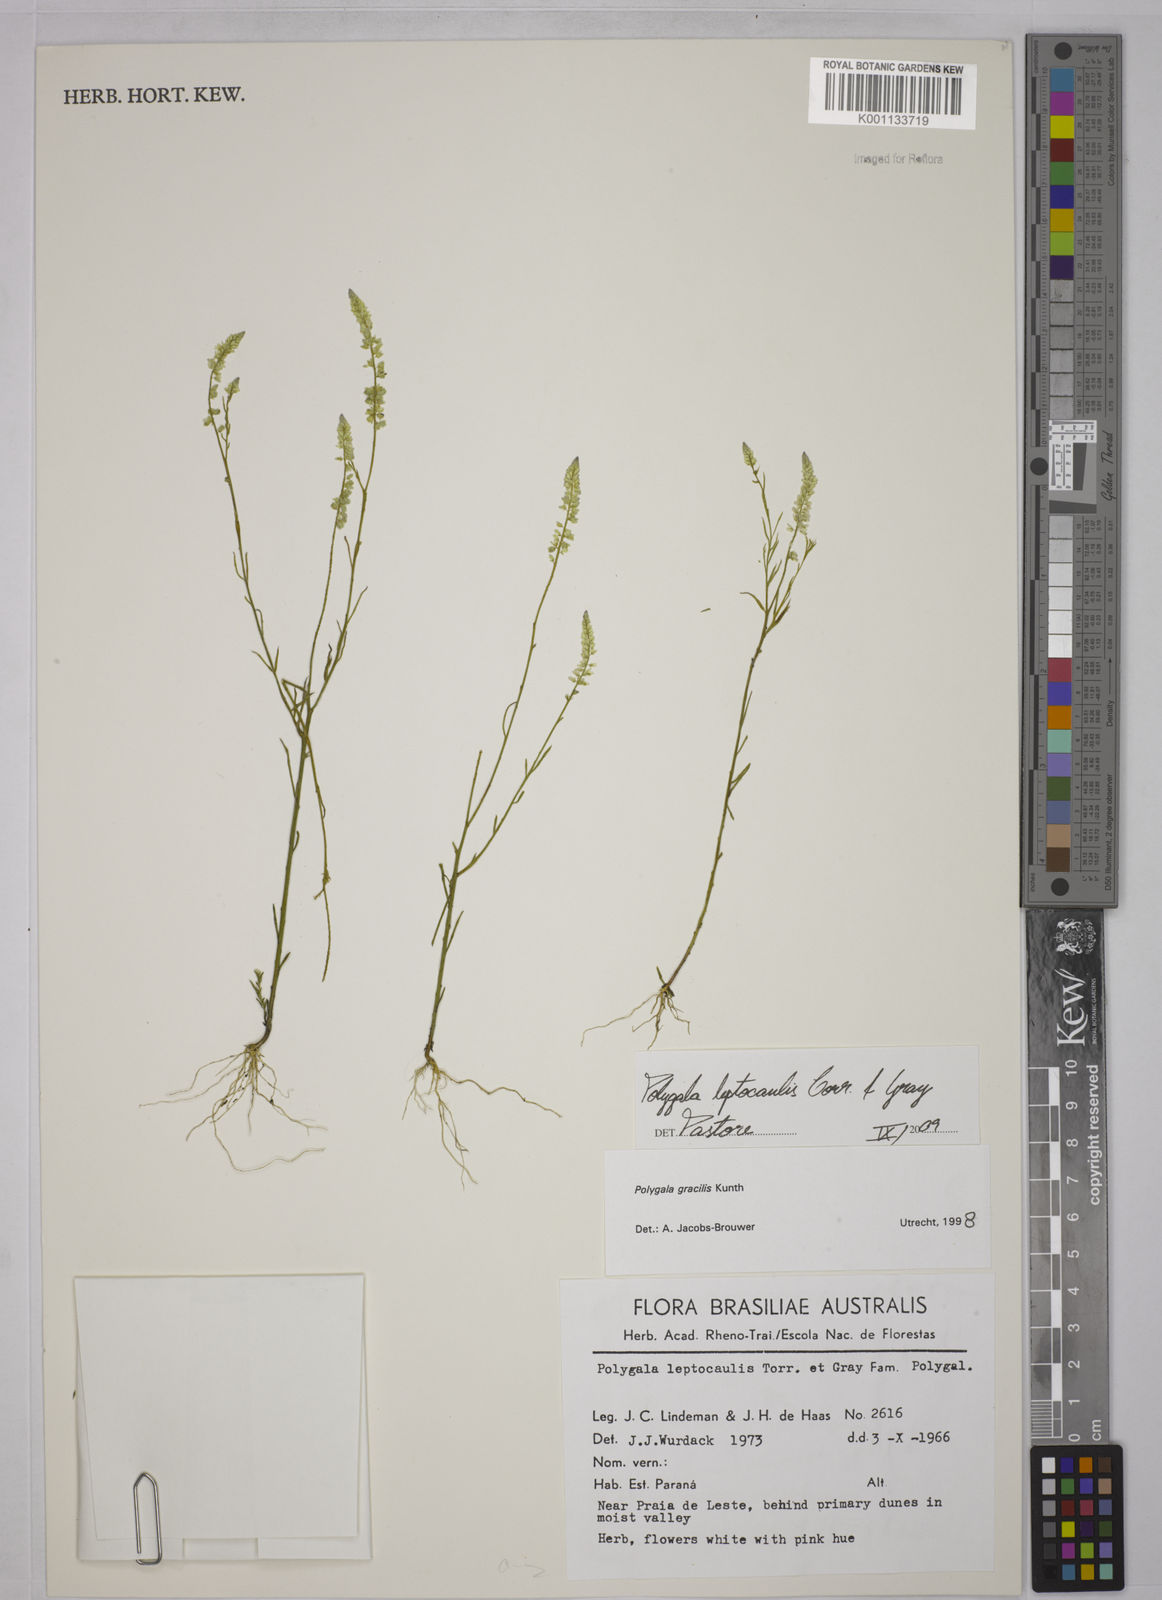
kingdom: Plantae
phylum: Tracheophyta
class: Magnoliopsida
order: Fabales
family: Polygalaceae
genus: Polygala
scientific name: Polygala tenella
